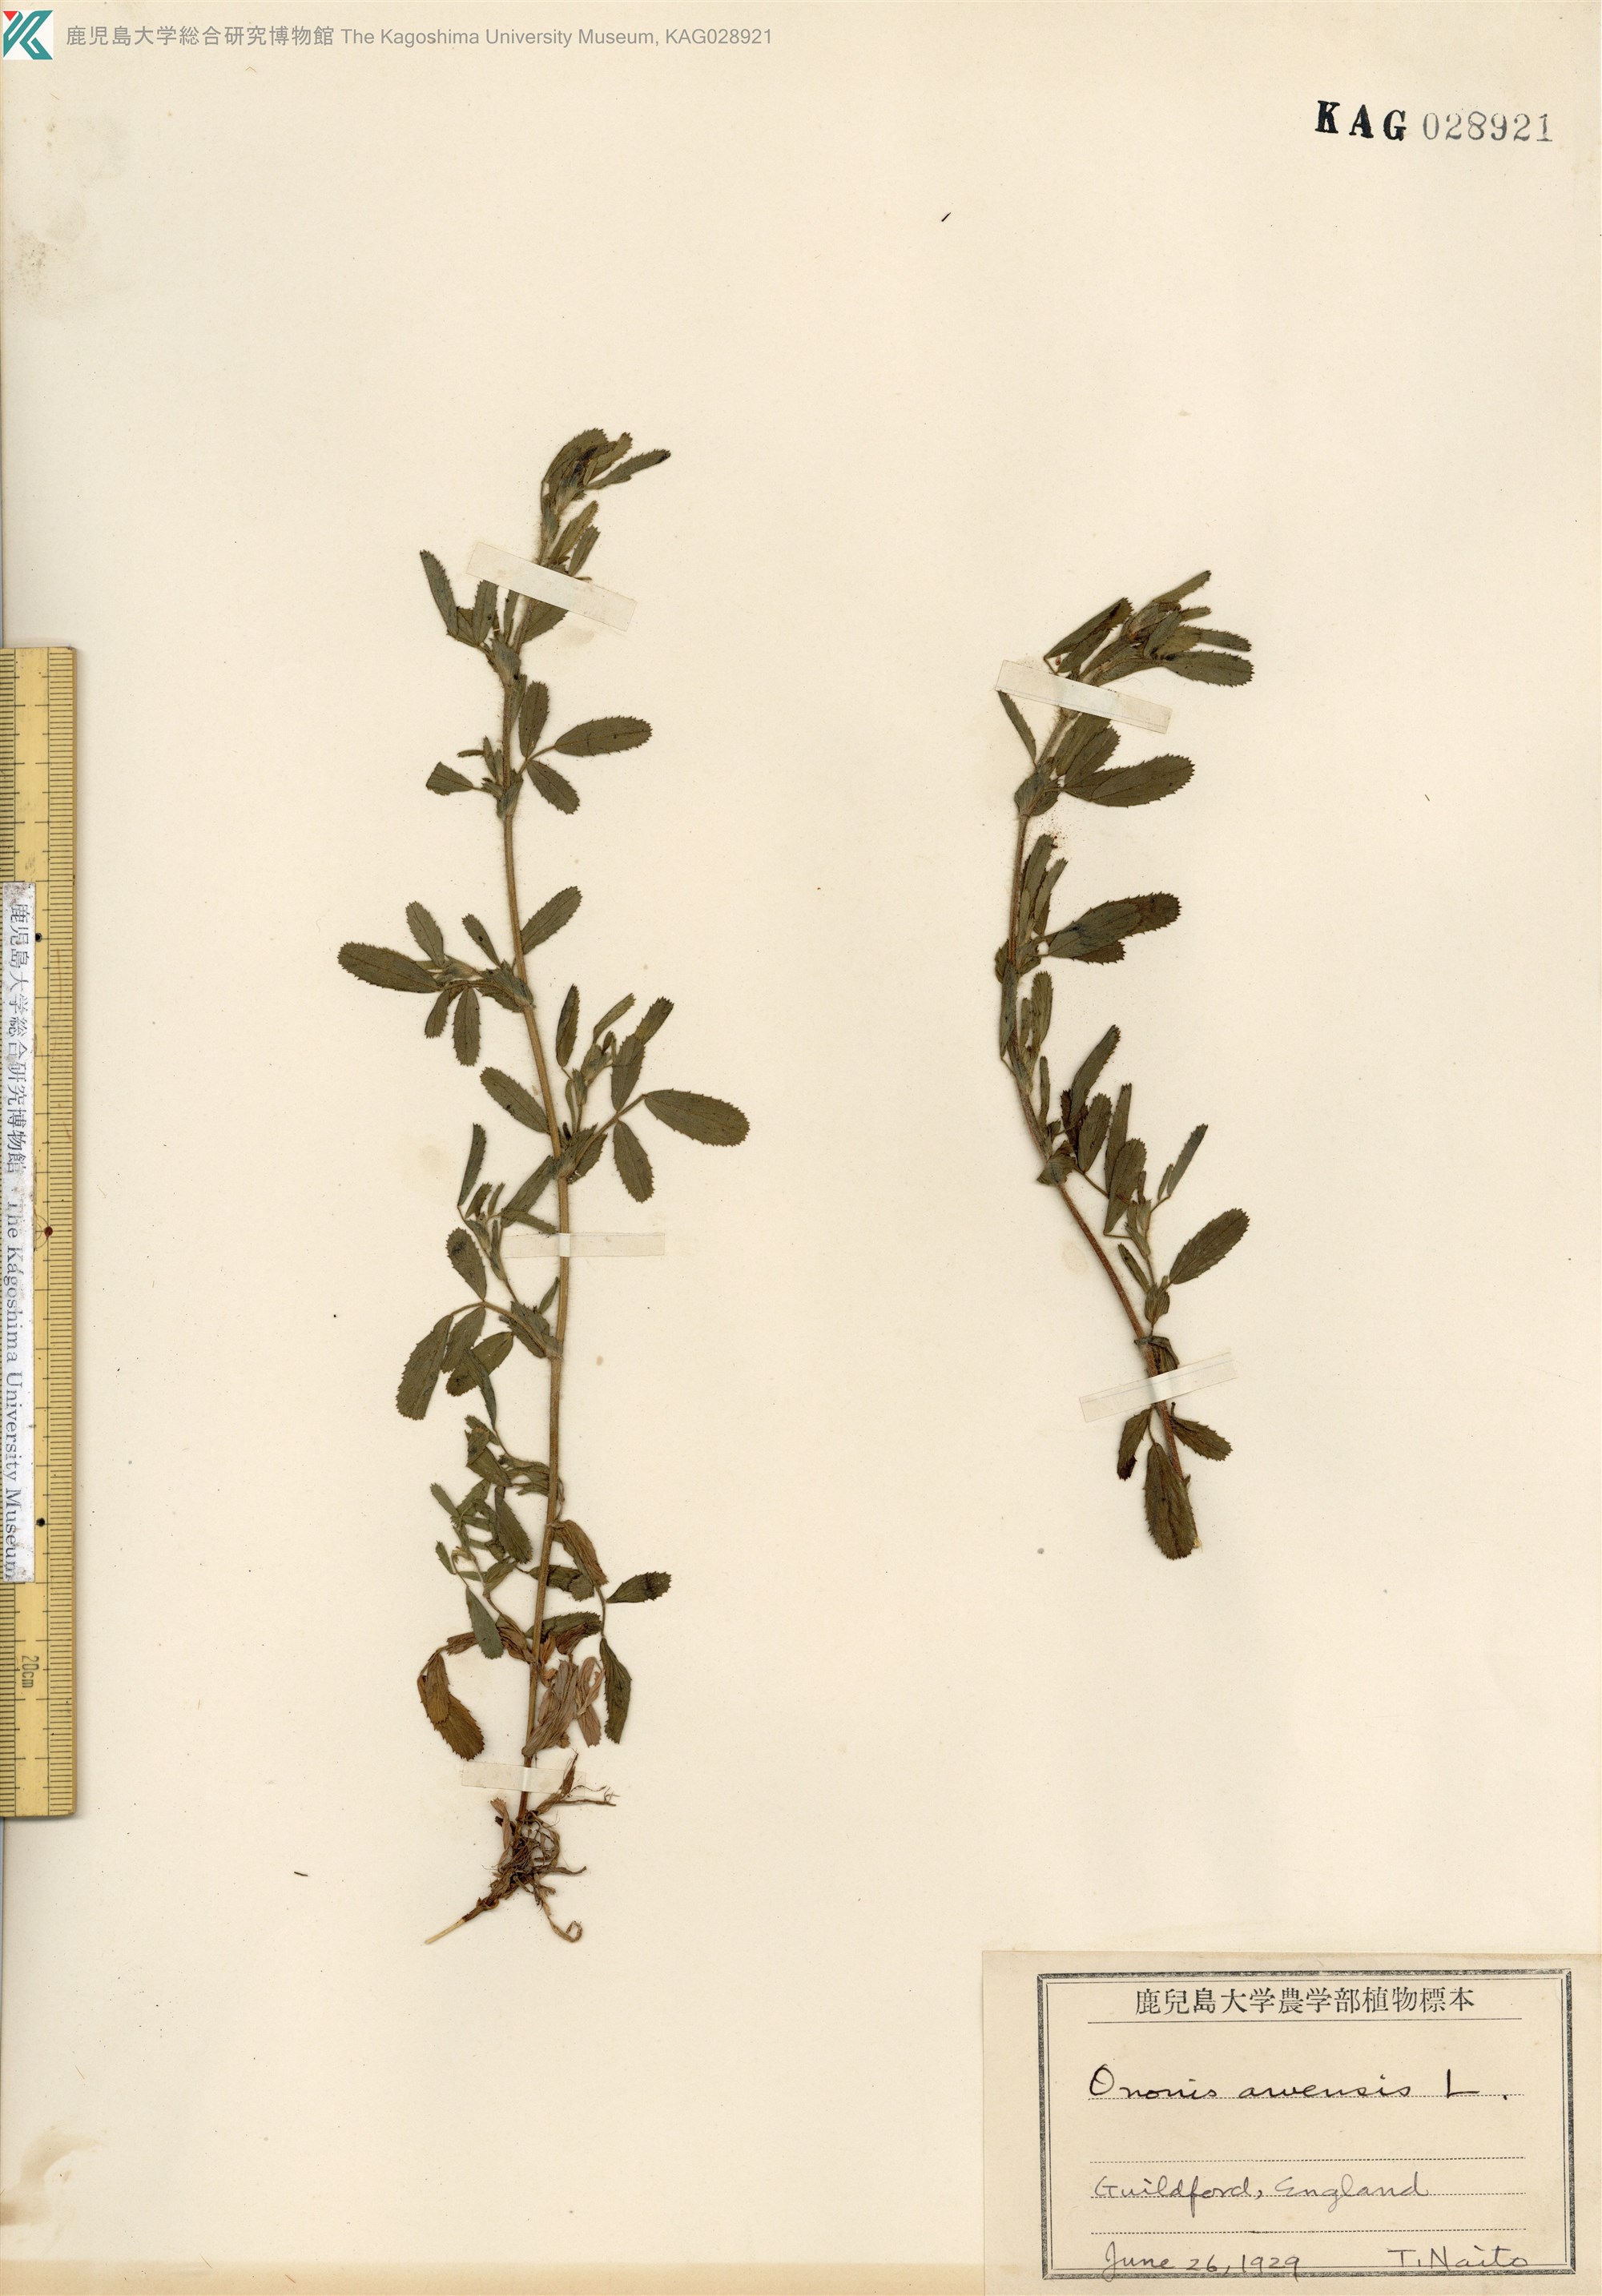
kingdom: Plantae
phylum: Tracheophyta
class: Magnoliopsida
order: Fabales
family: Fabaceae
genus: Ononis
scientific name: Ononis arvensis
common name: Field restharrow
